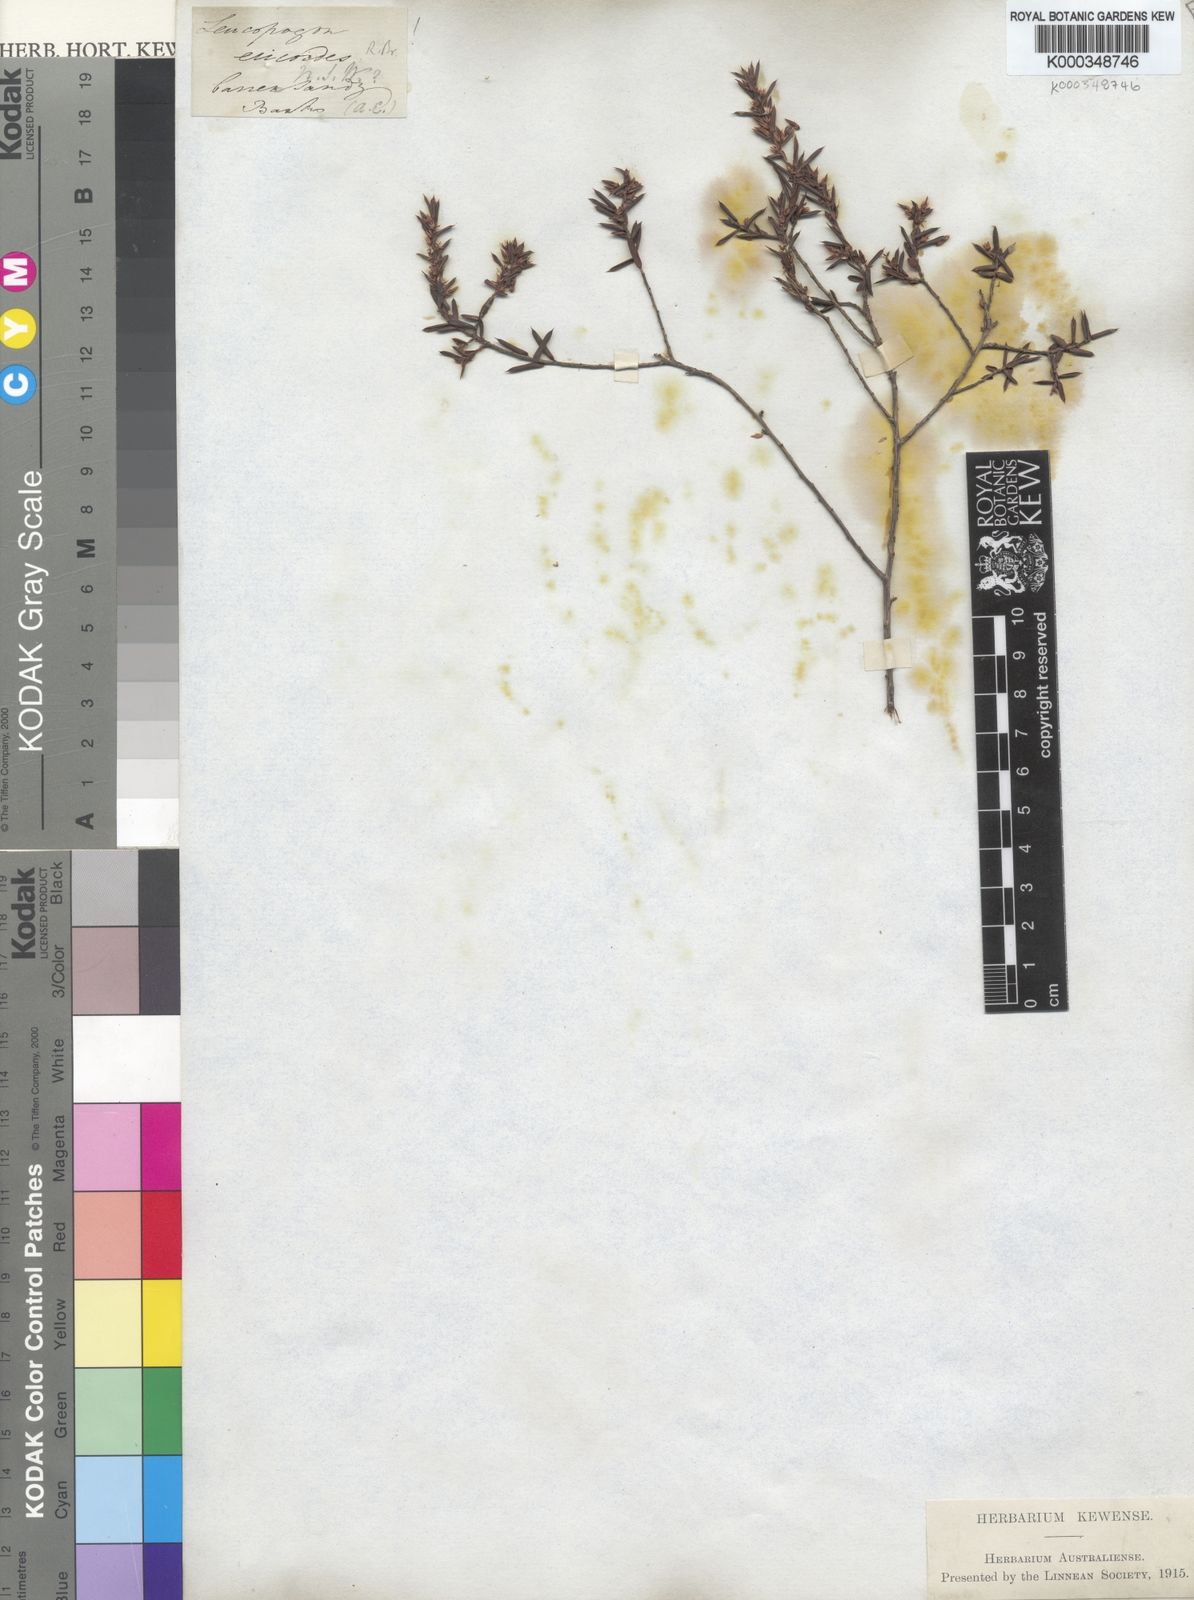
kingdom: Plantae
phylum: Tracheophyta
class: Magnoliopsida
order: Ericales
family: Ericaceae
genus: Styphelia
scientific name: Styphelia ericoides
